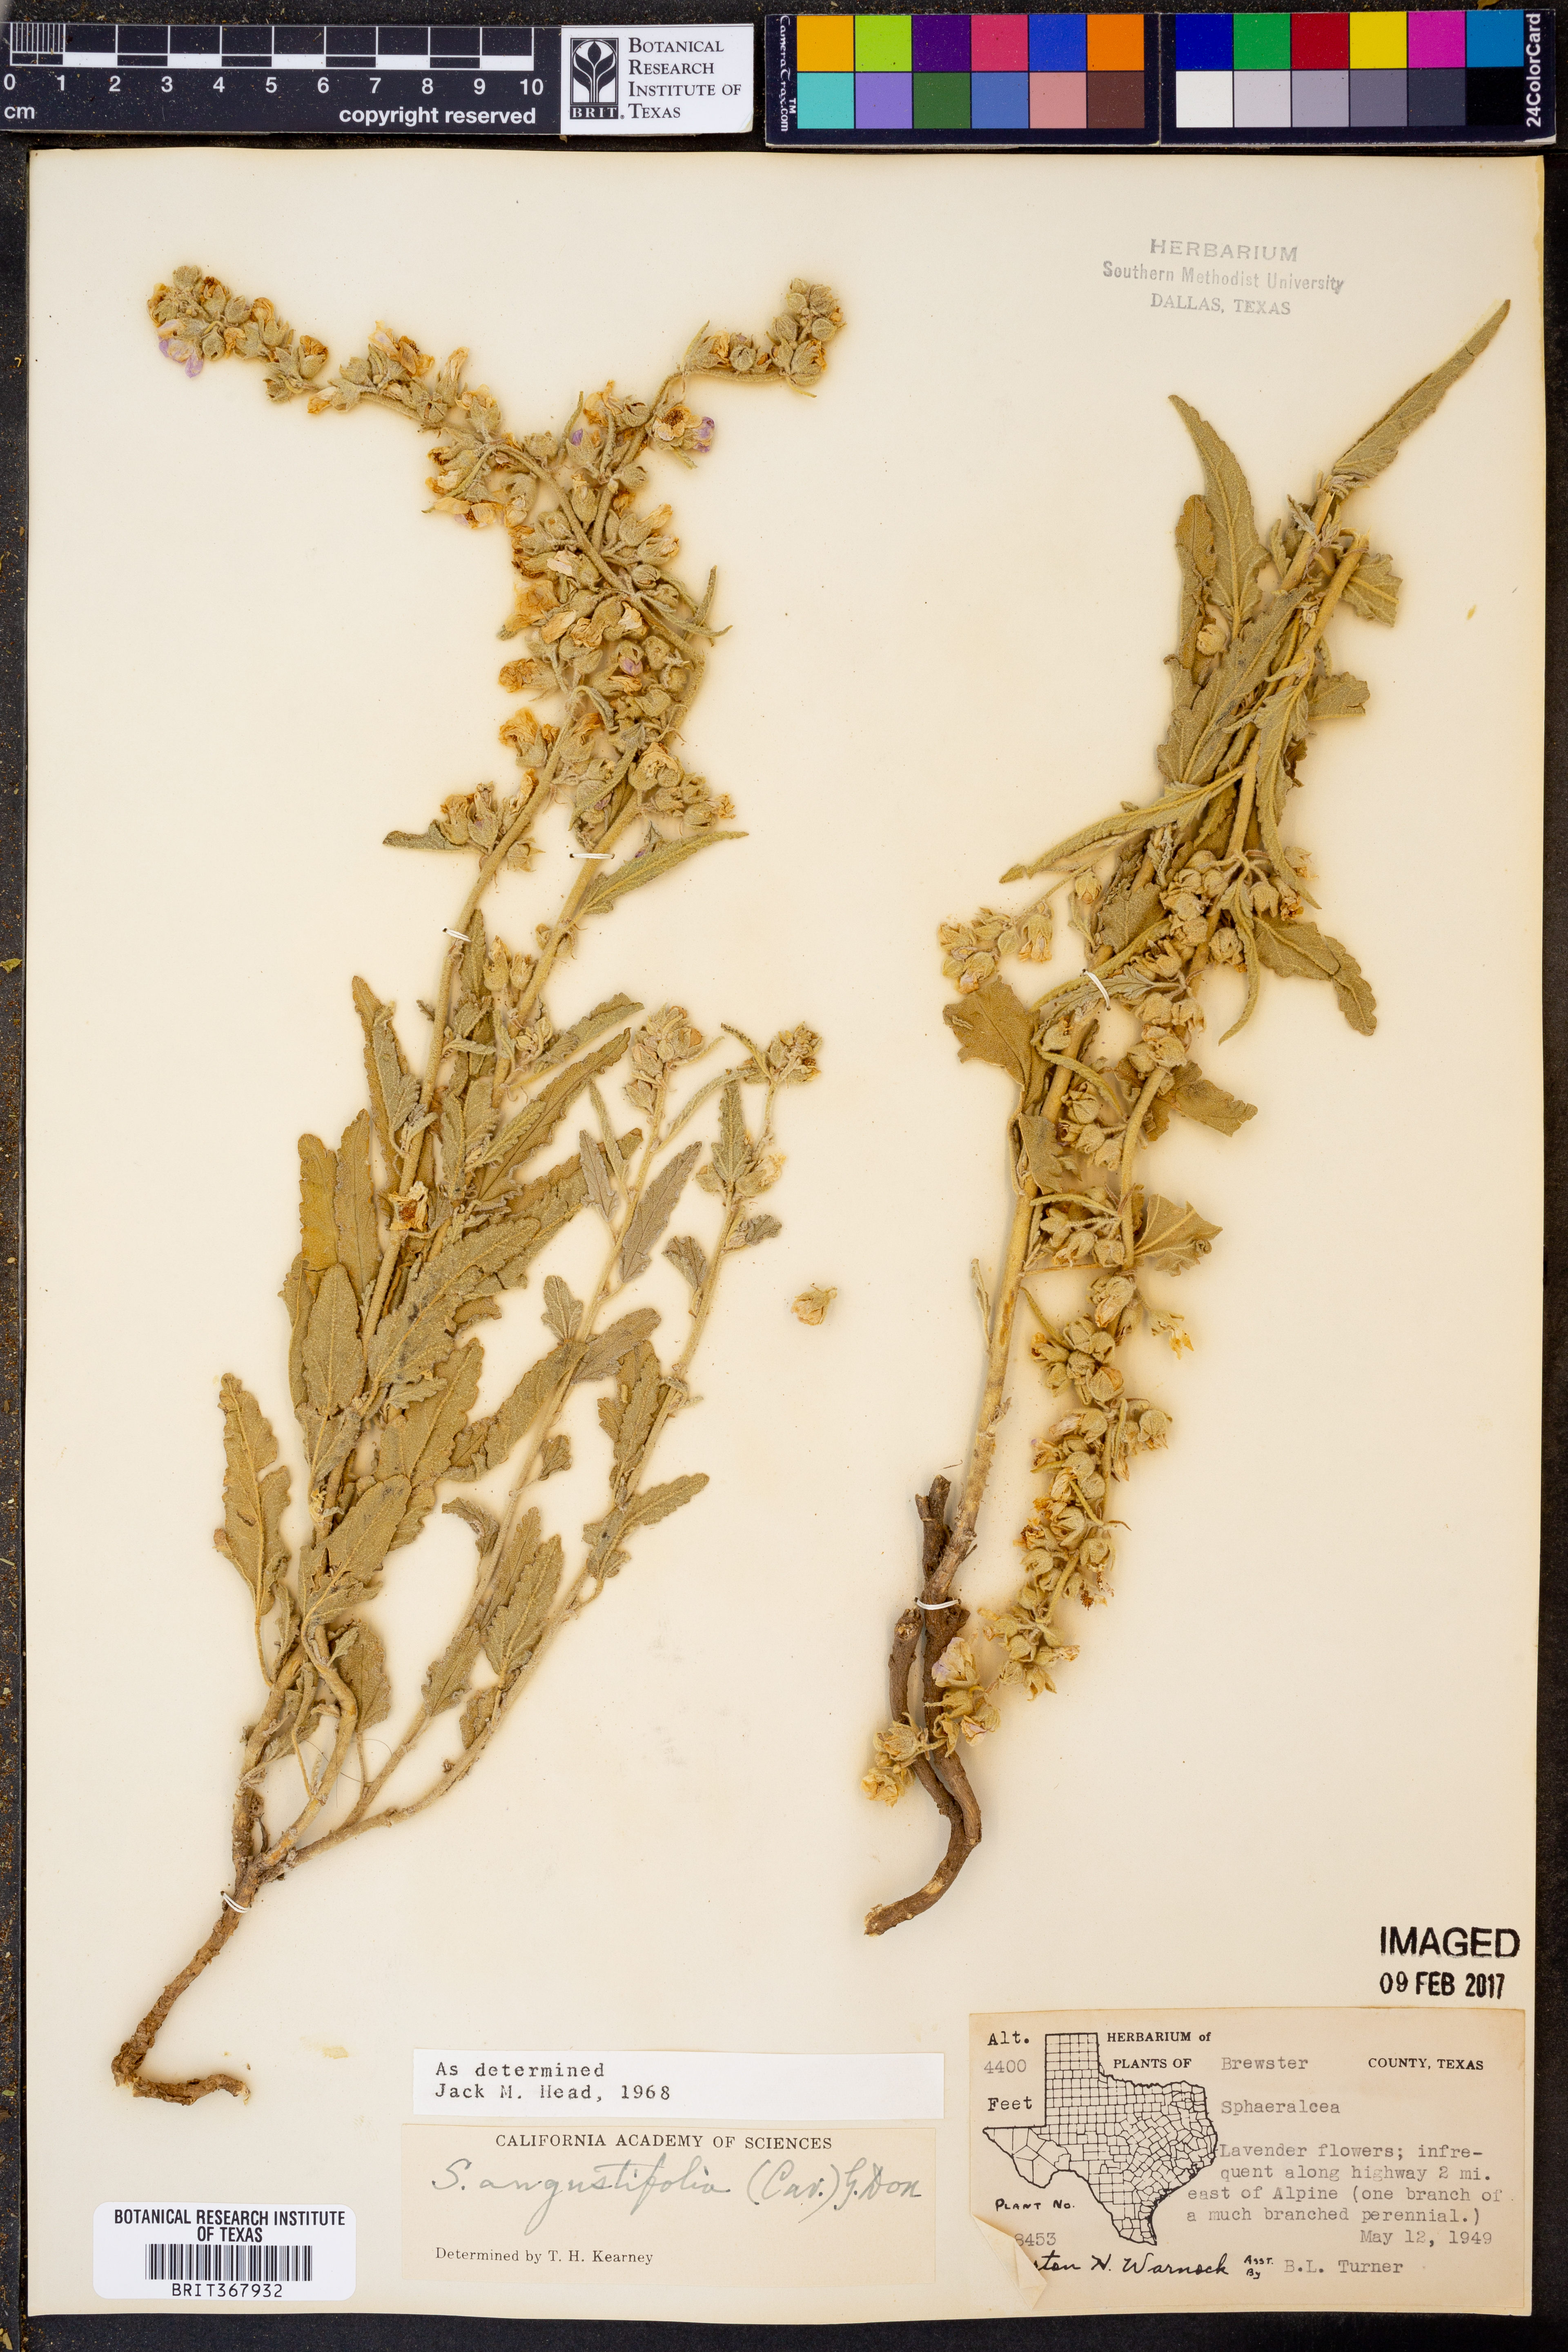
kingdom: Plantae
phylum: Tracheophyta
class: Magnoliopsida
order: Malvales
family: Malvaceae
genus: Sphaeralcea
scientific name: Sphaeralcea angustifolia
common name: Copper globe-mallow
